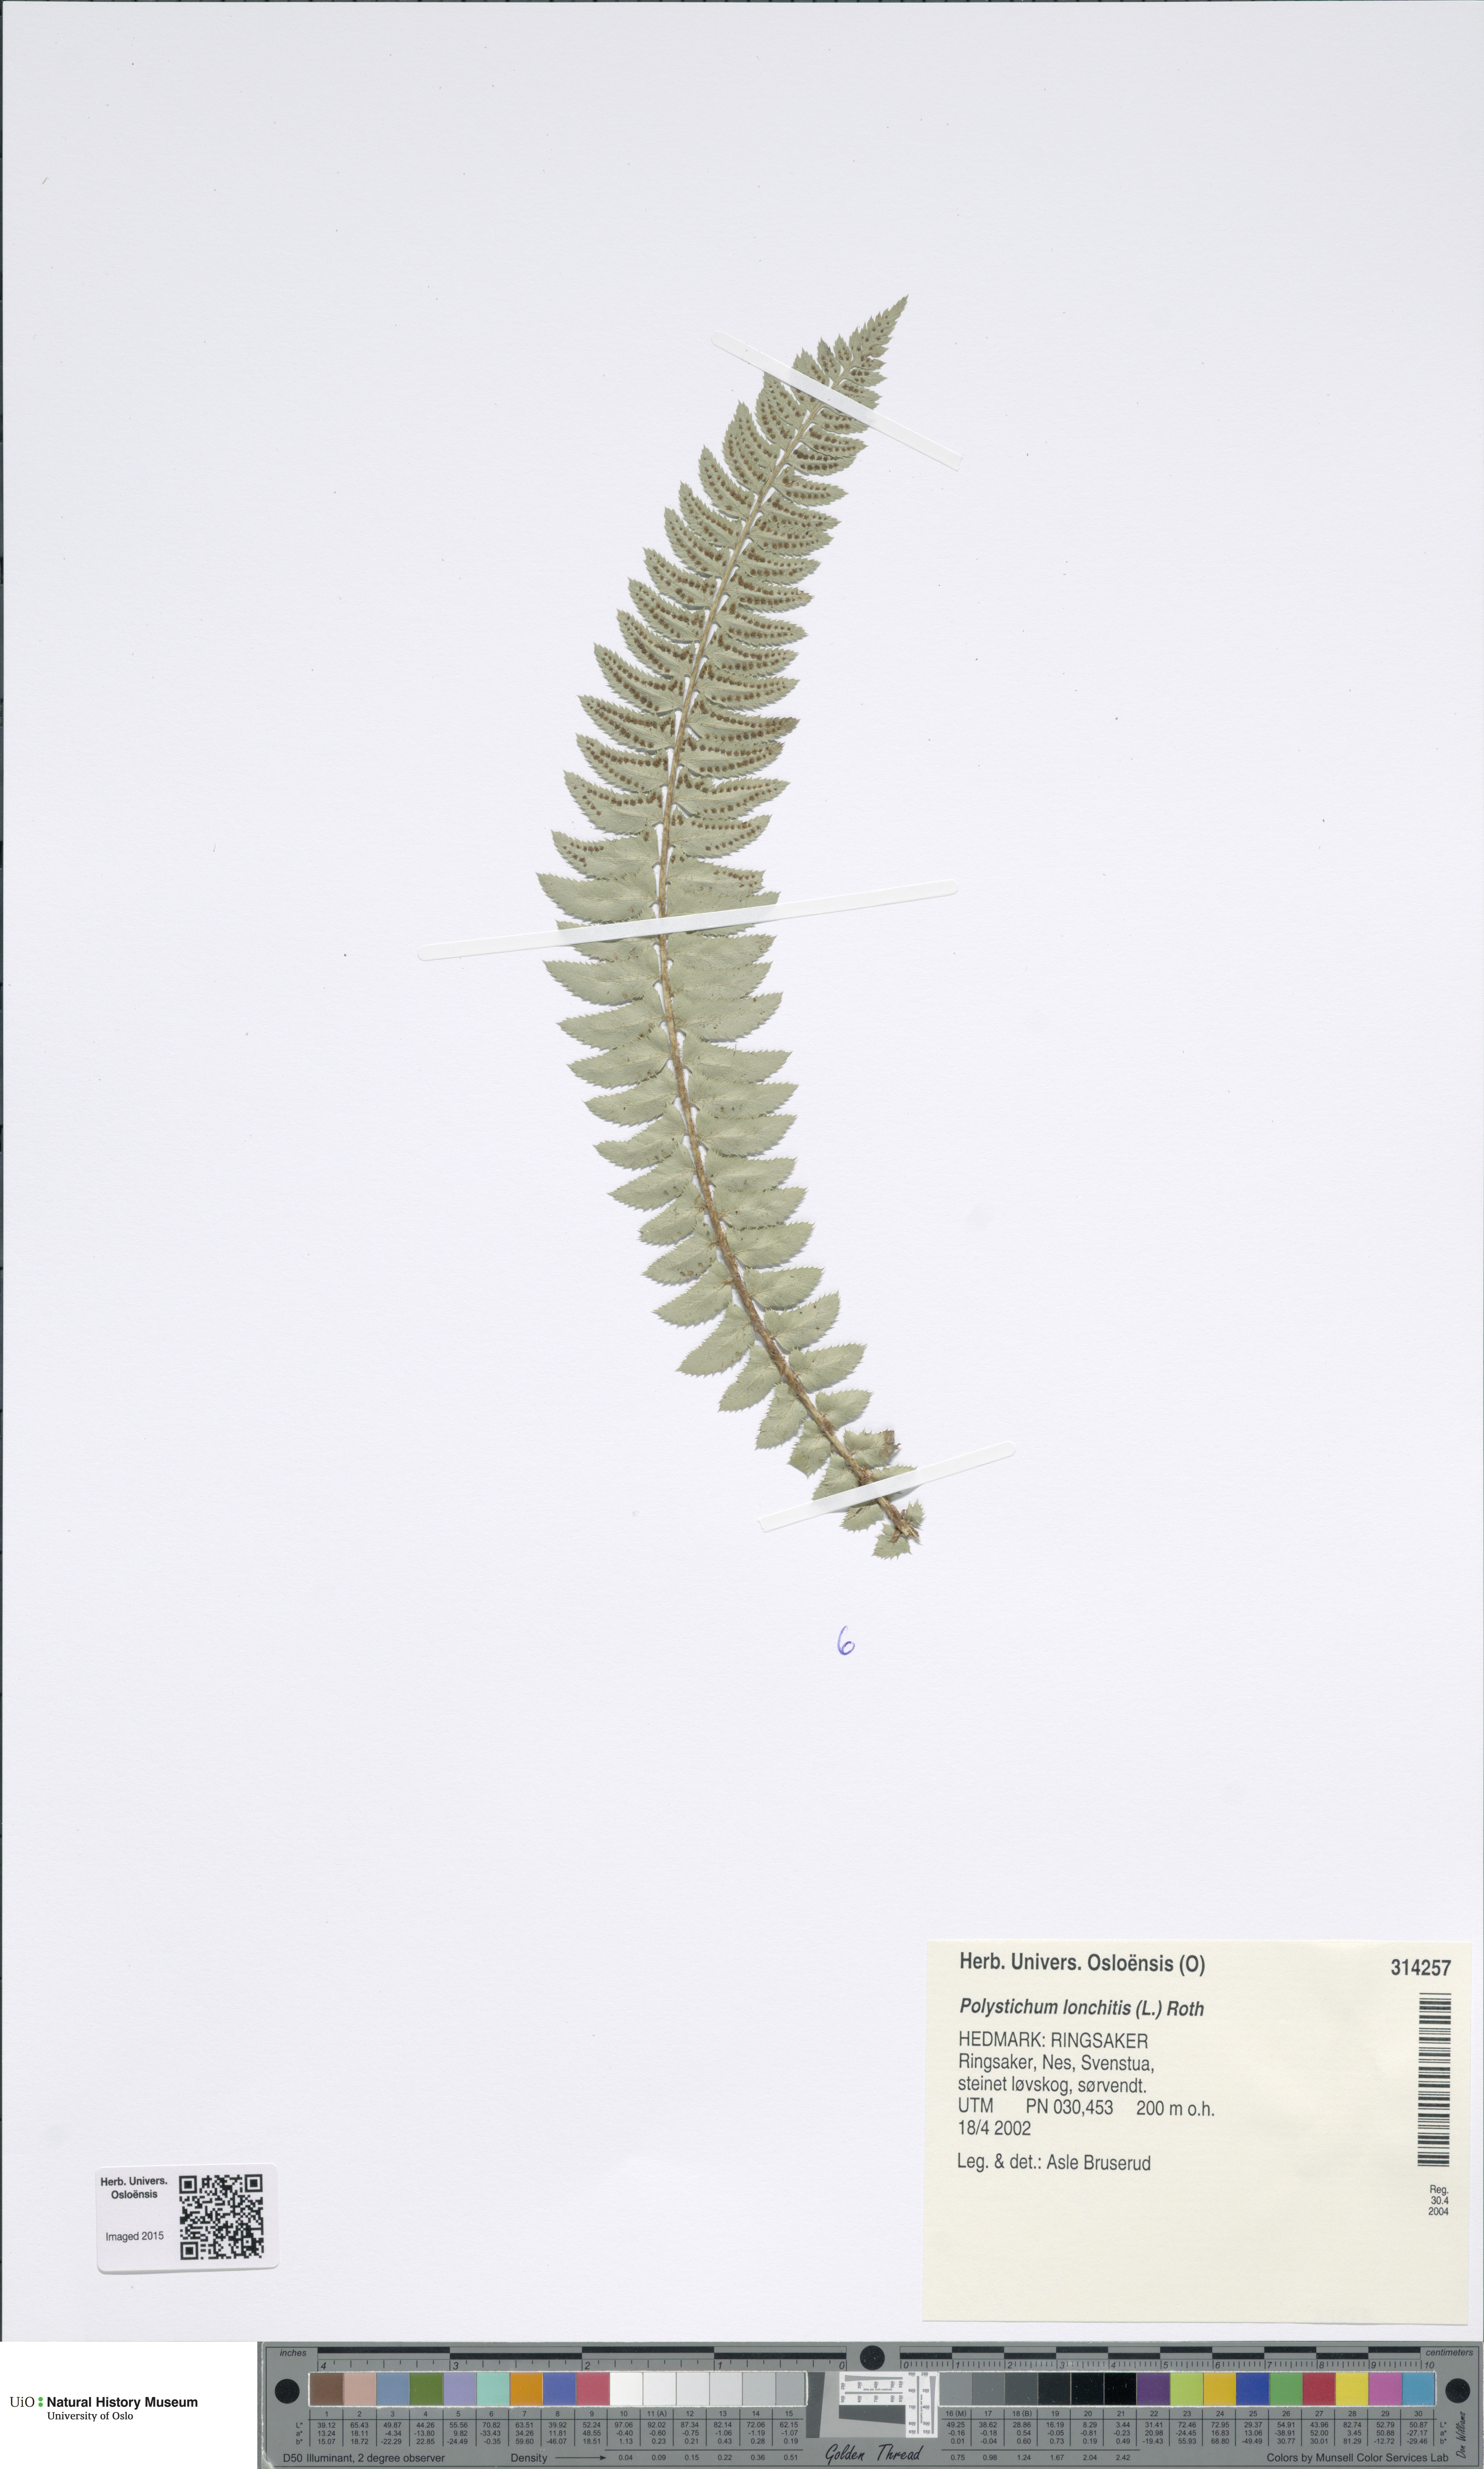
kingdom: Plantae
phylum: Tracheophyta
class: Polypodiopsida
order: Polypodiales
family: Dryopteridaceae
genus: Polystichum
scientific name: Polystichum lonchitis
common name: Holly fern
